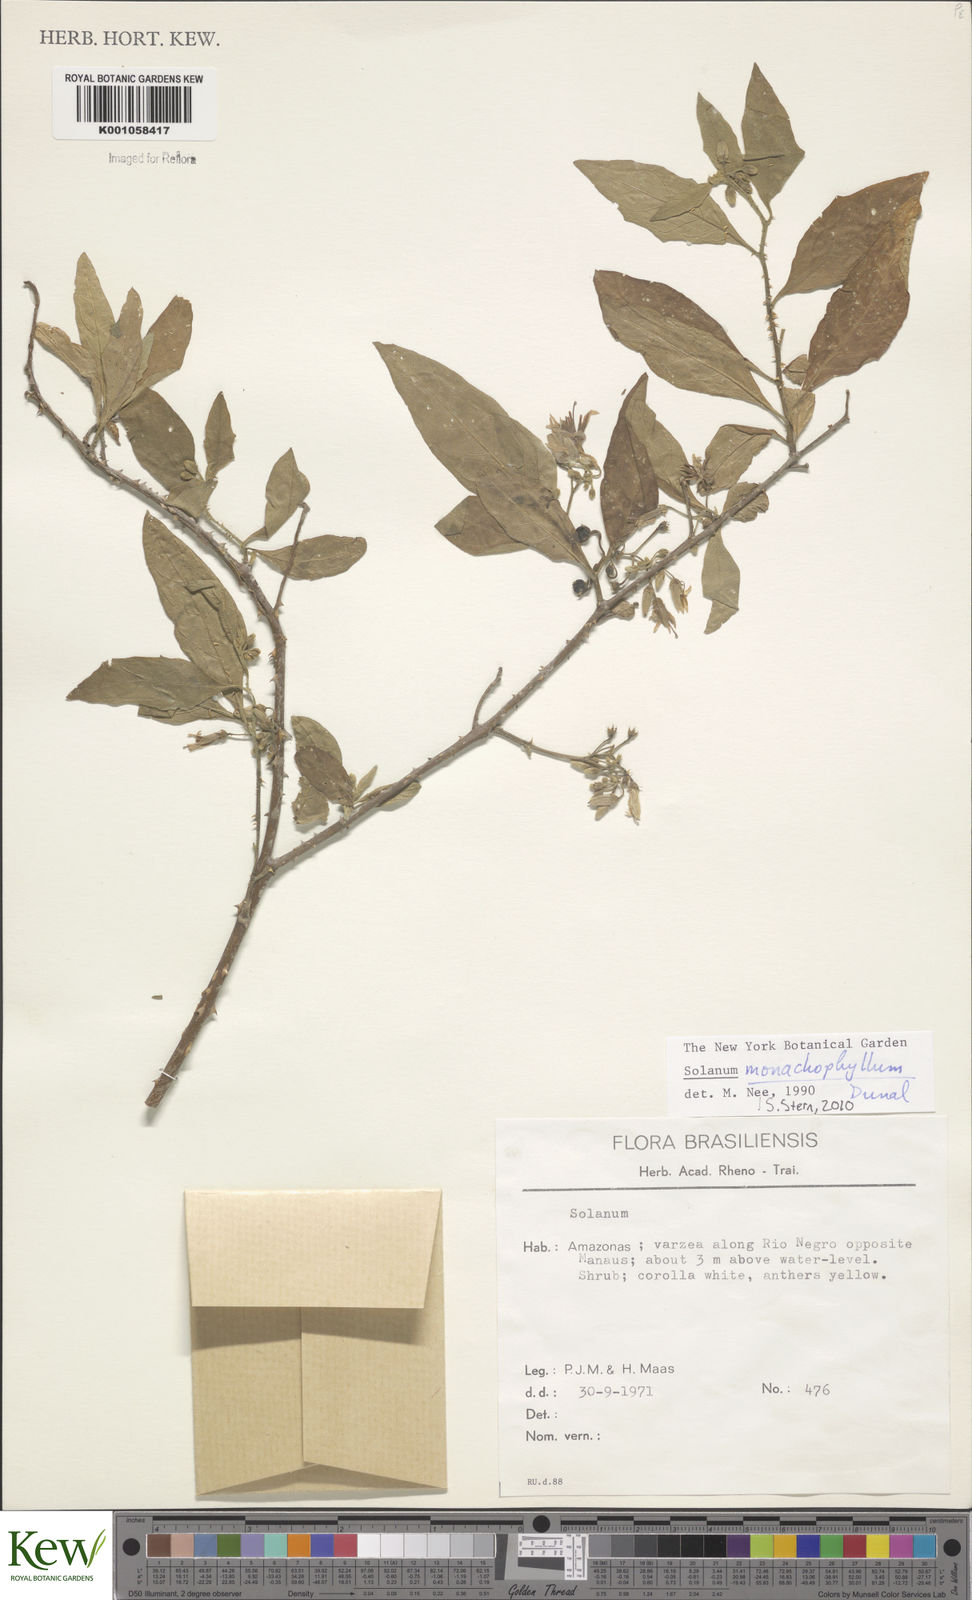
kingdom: Plantae
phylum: Tracheophyta
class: Magnoliopsida
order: Solanales
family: Solanaceae
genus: Solanum
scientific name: Solanum monachophyllum
